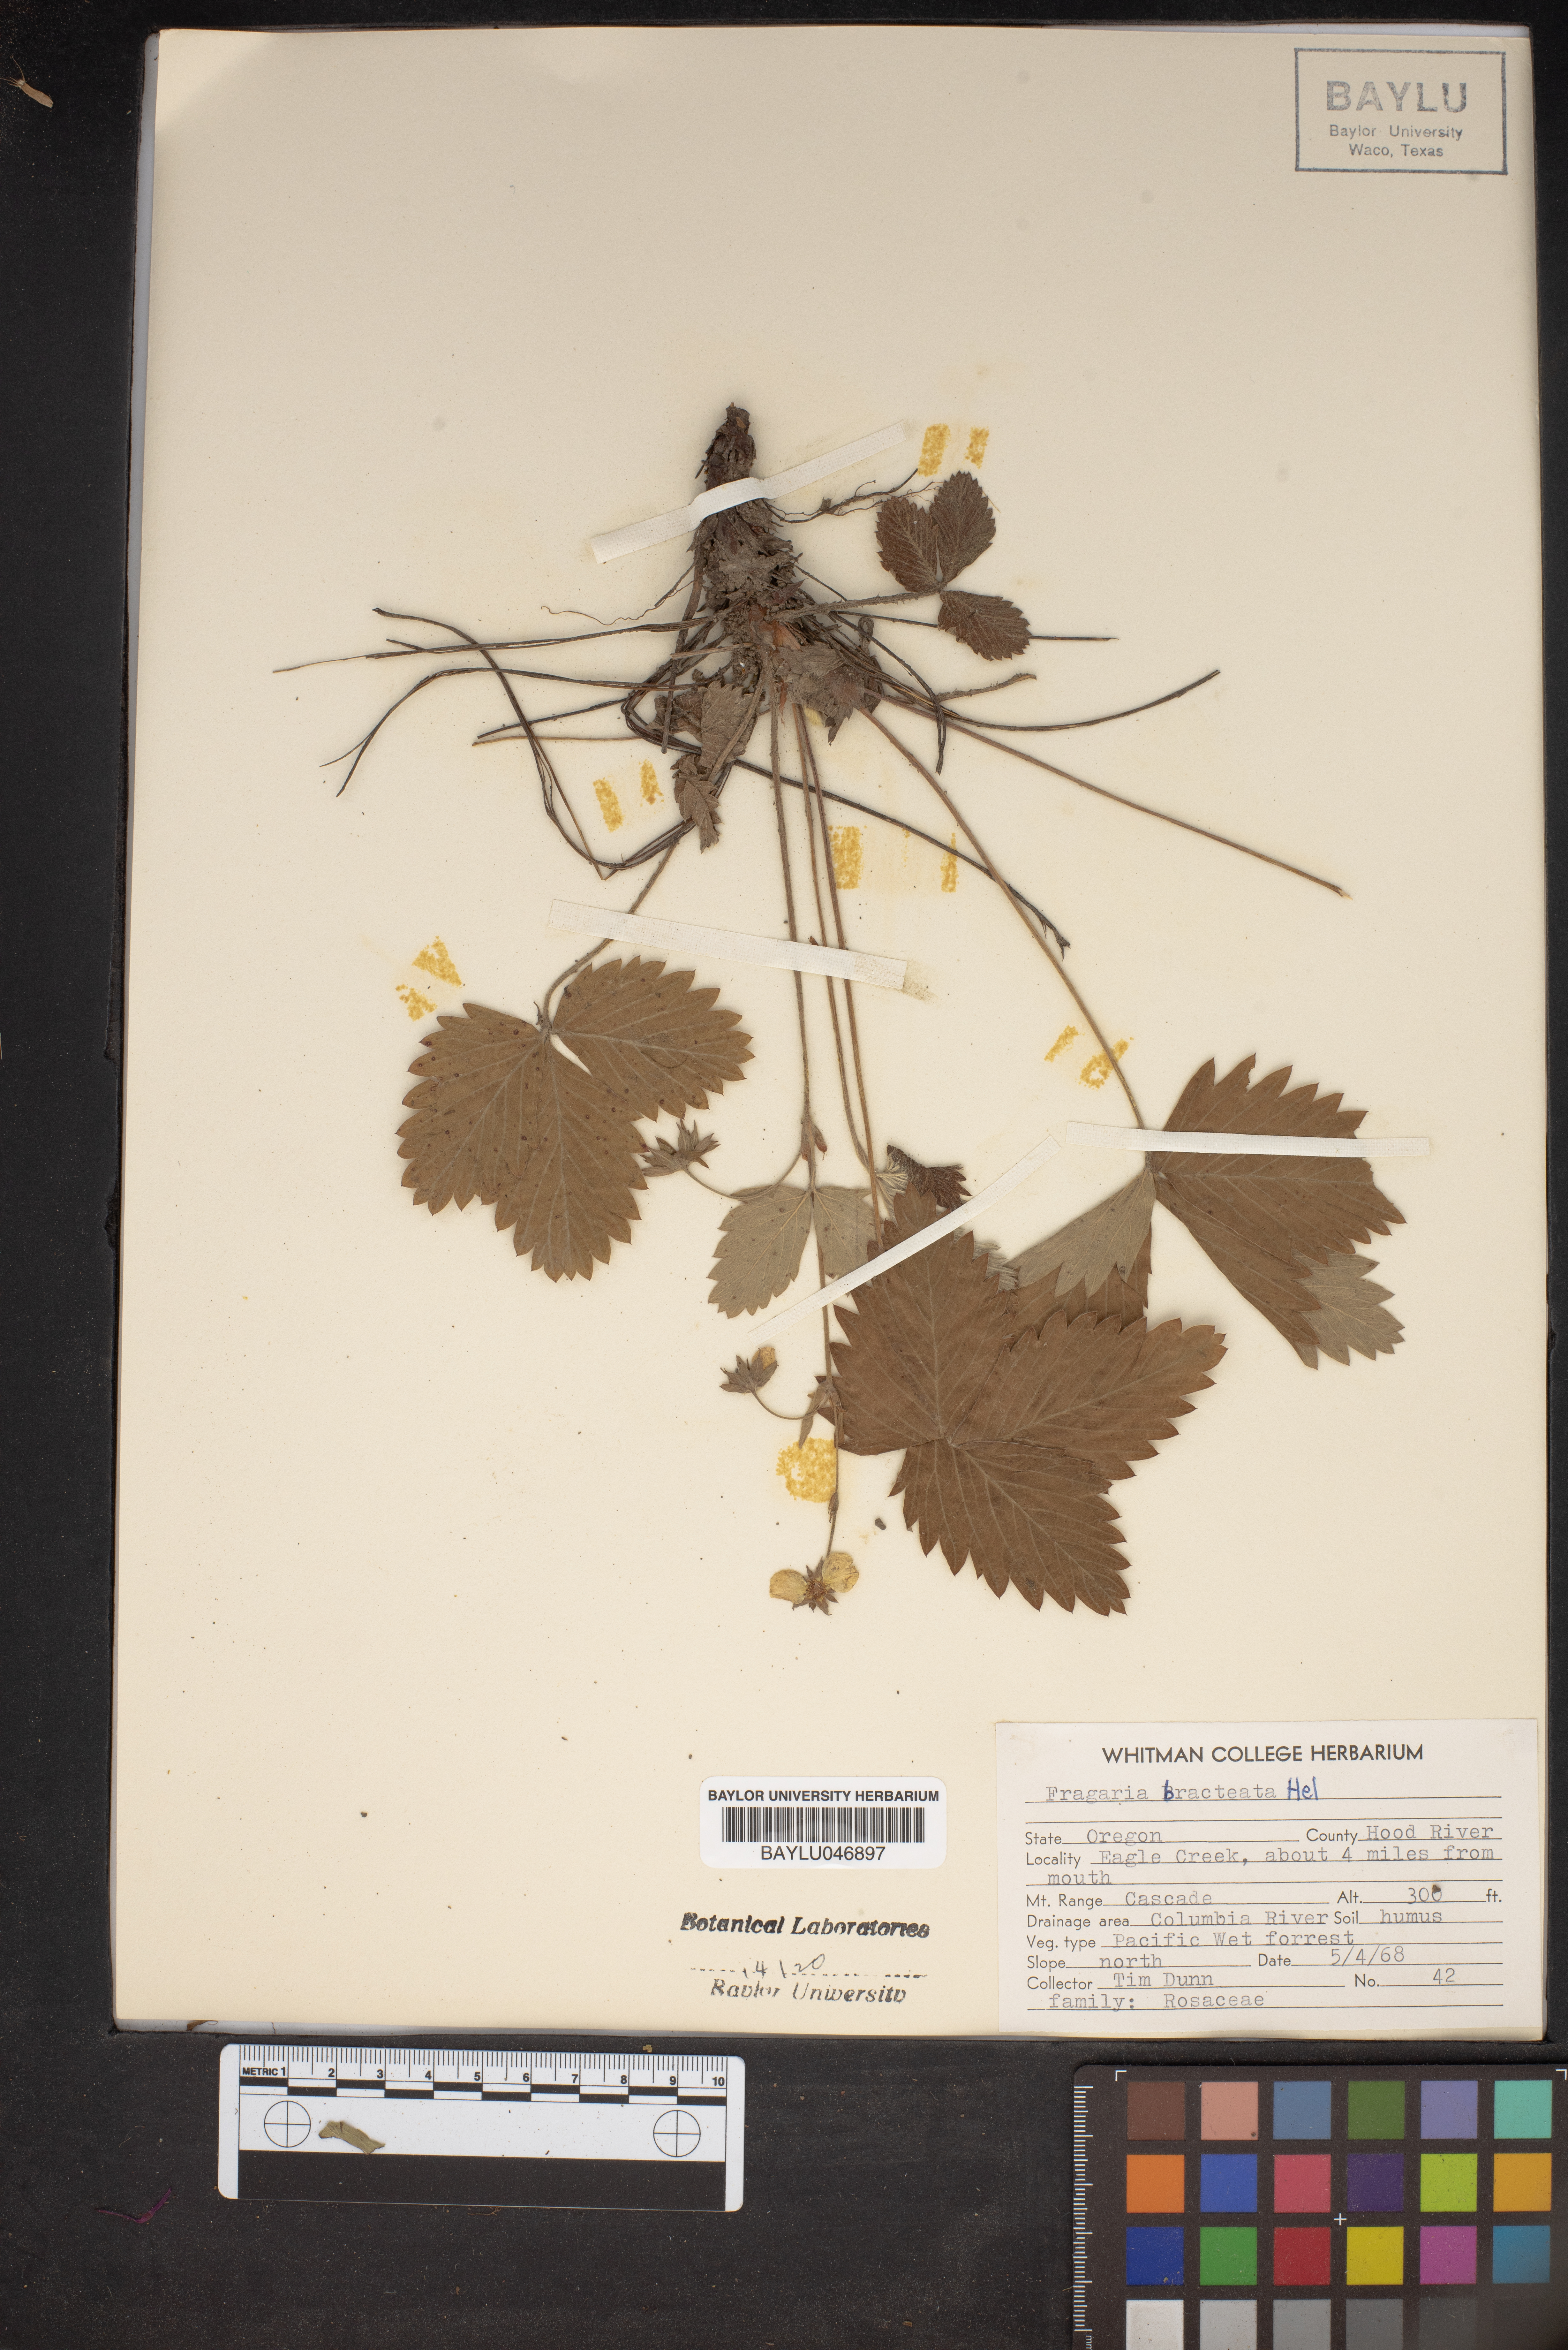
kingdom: Plantae
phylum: Tracheophyta
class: Magnoliopsida
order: Rosales
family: Rosaceae
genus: Fragaria
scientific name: Fragaria vesca
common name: Wild strawberry
